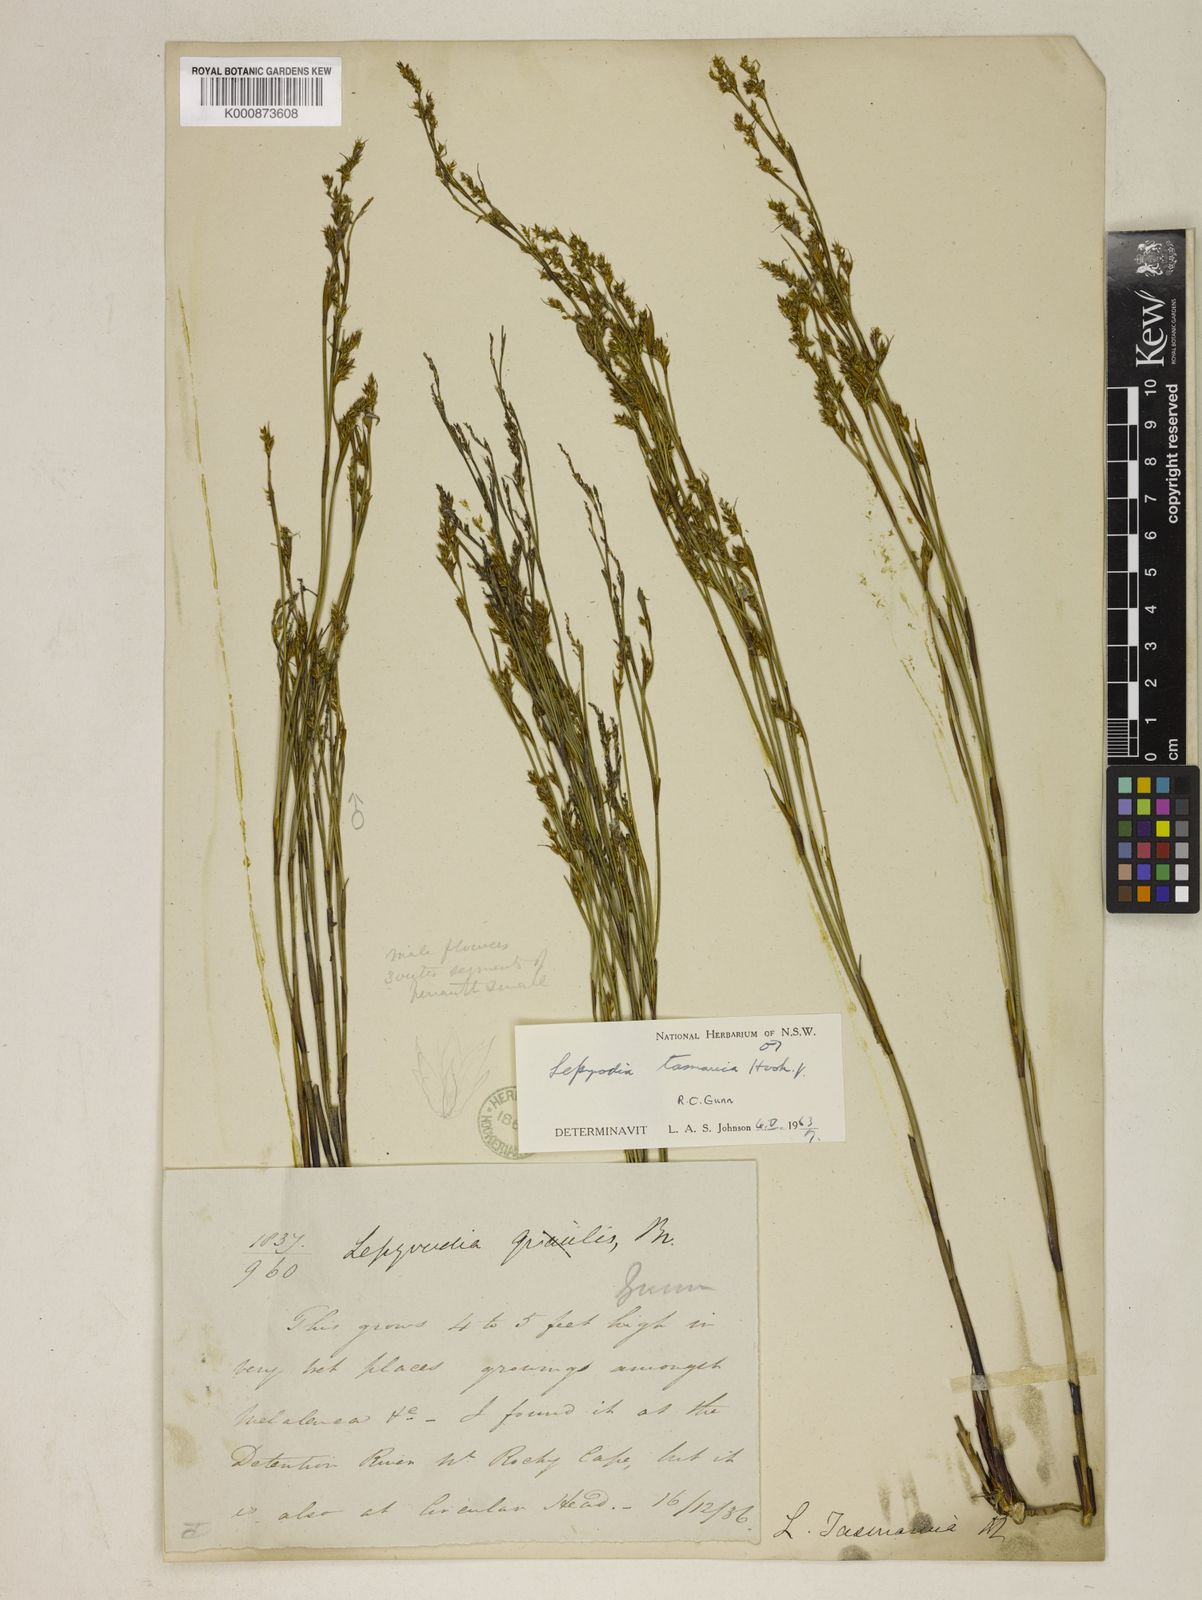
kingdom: Plantae
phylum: Tracheophyta
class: Liliopsida
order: Poales
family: Restionaceae
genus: Sporadanthus
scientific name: Sporadanthus tasmanicus
